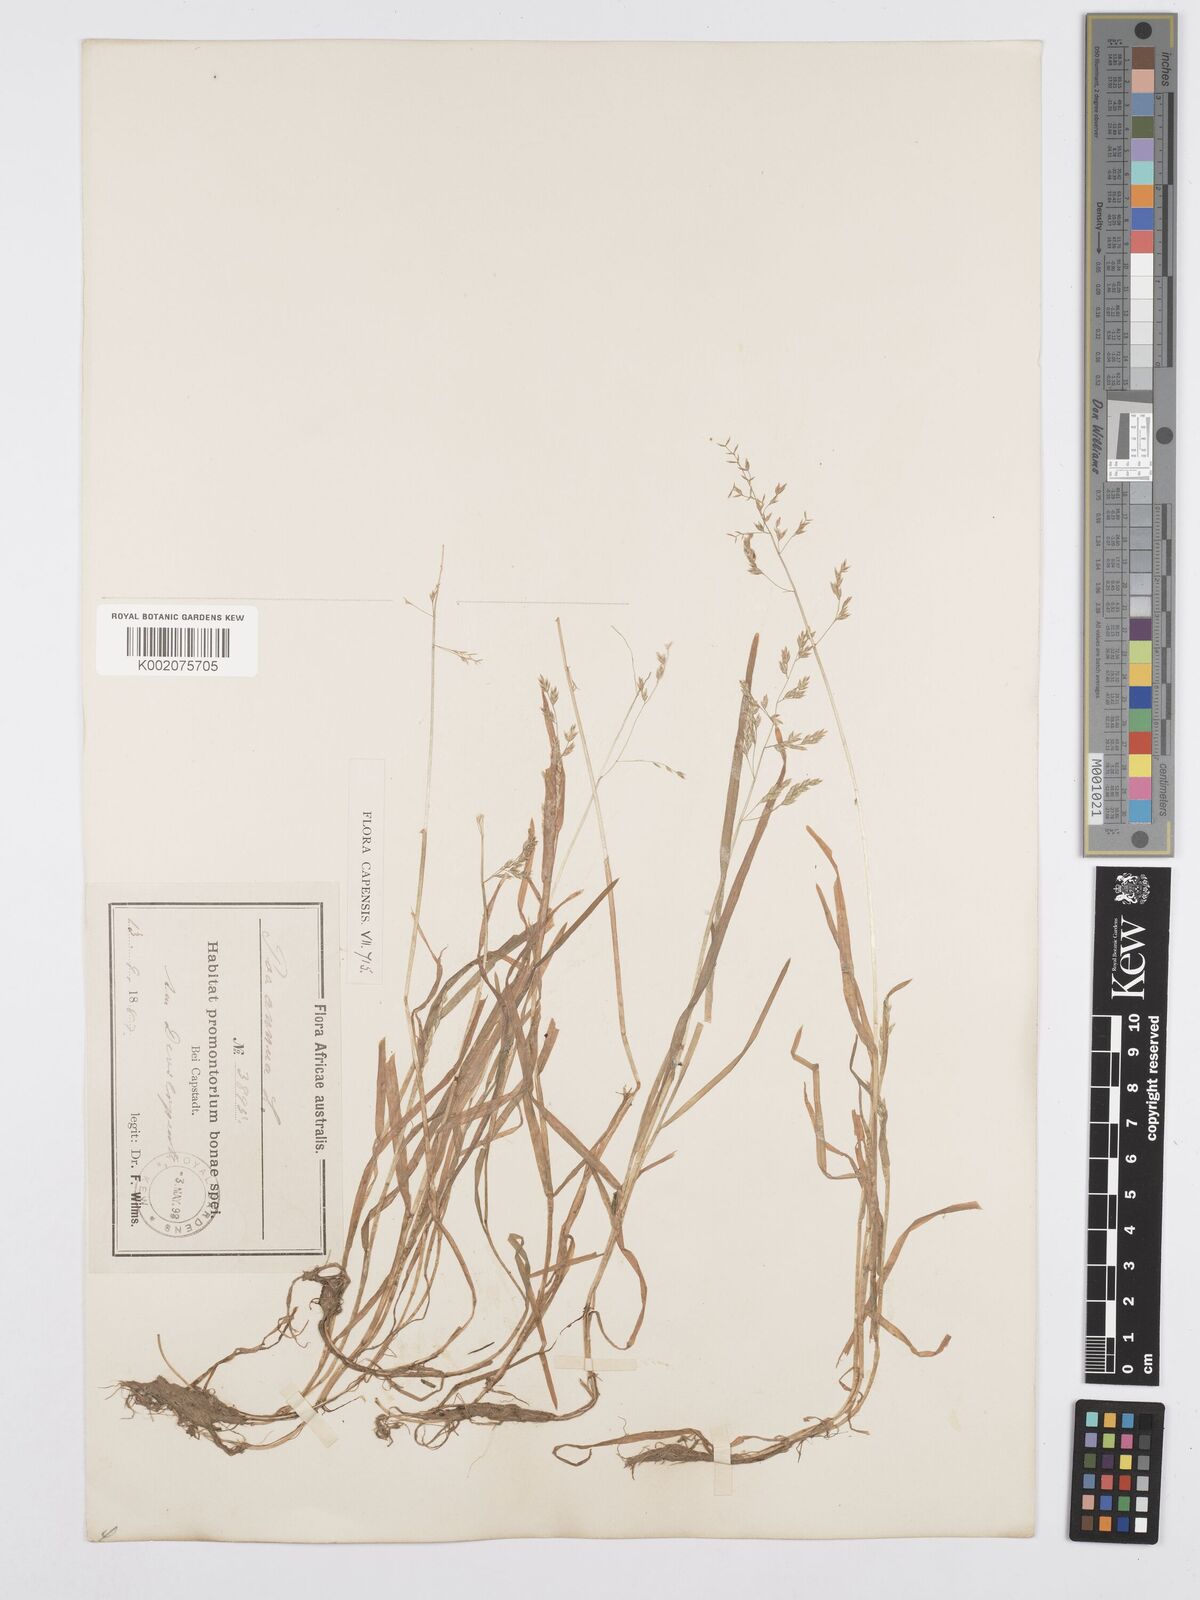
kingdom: Plantae
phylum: Tracheophyta
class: Liliopsida
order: Poales
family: Poaceae
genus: Poa
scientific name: Poa annua
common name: Annual bluegrass
